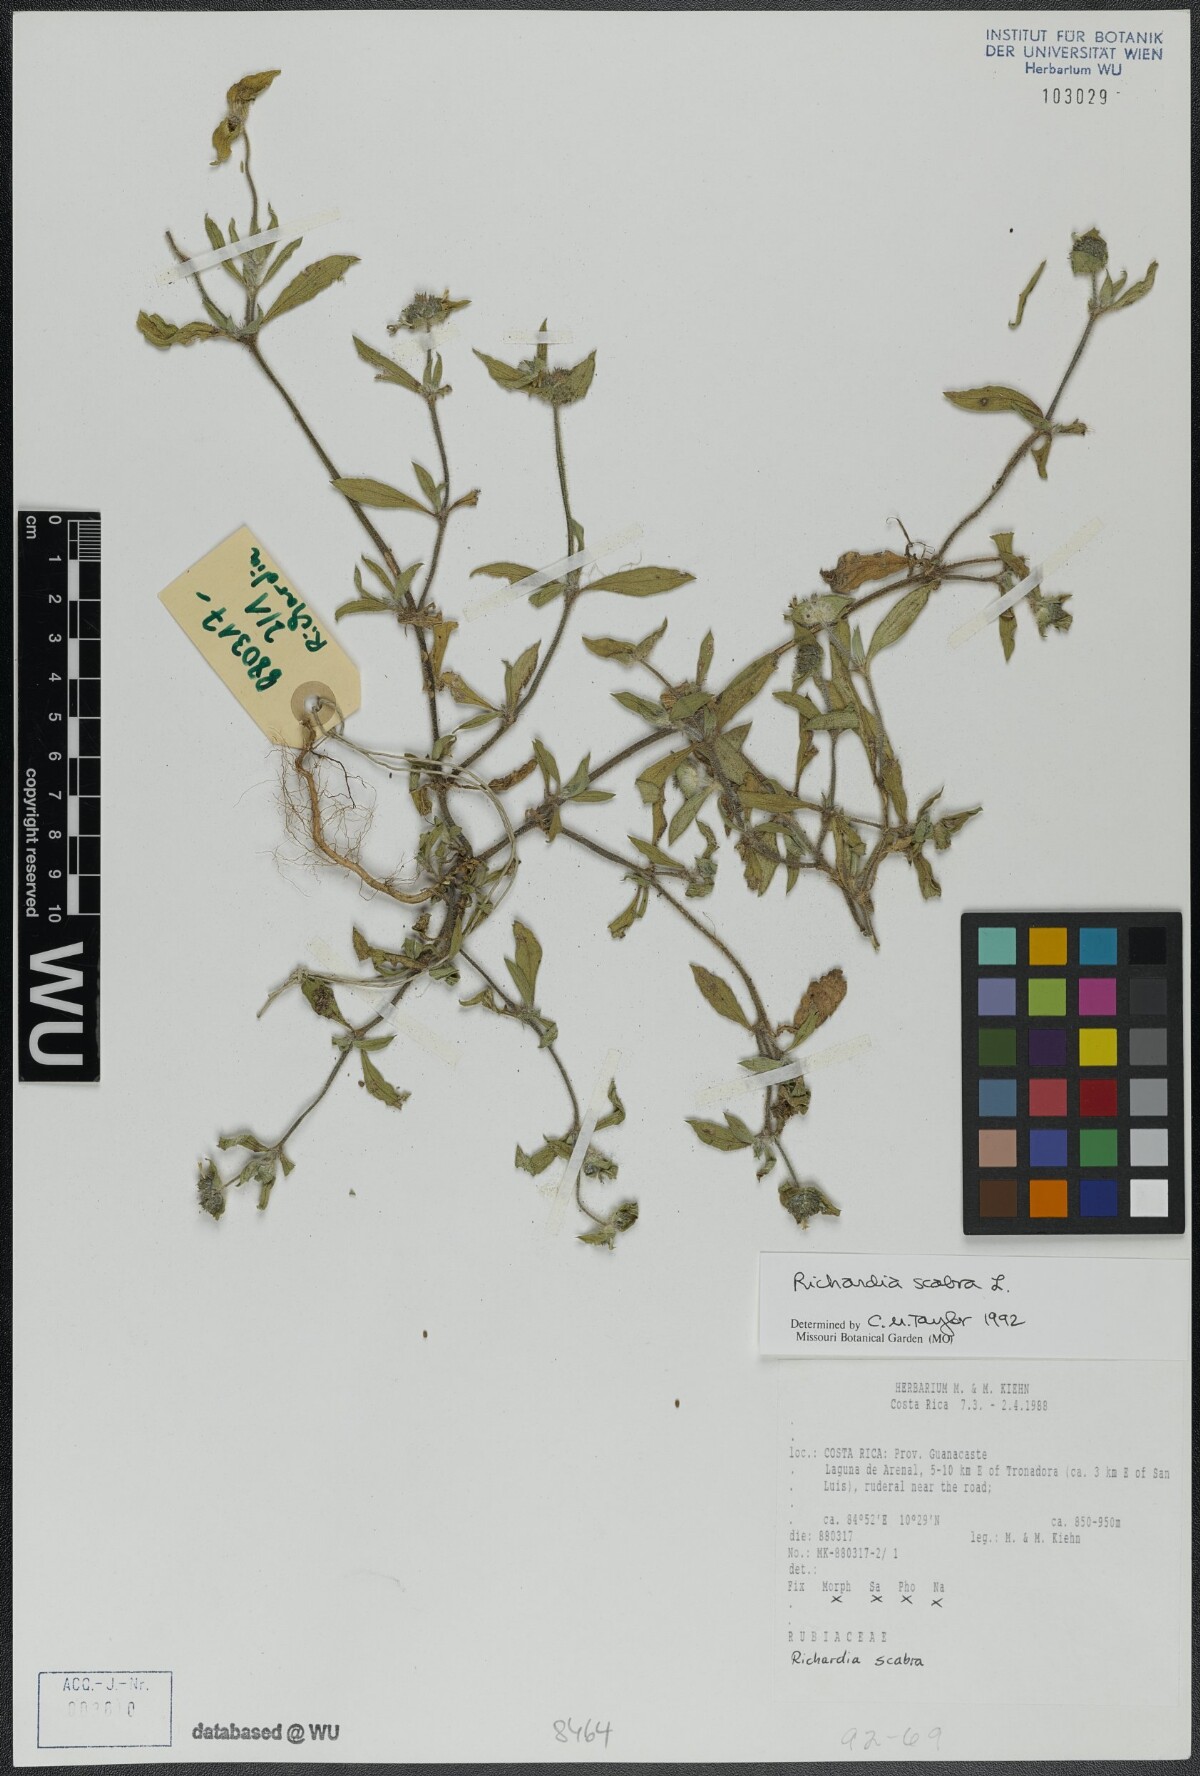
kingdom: Plantae
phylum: Tracheophyta
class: Magnoliopsida
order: Gentianales
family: Rubiaceae
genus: Richardia
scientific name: Richardia scabra
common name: Rough mexican clover
